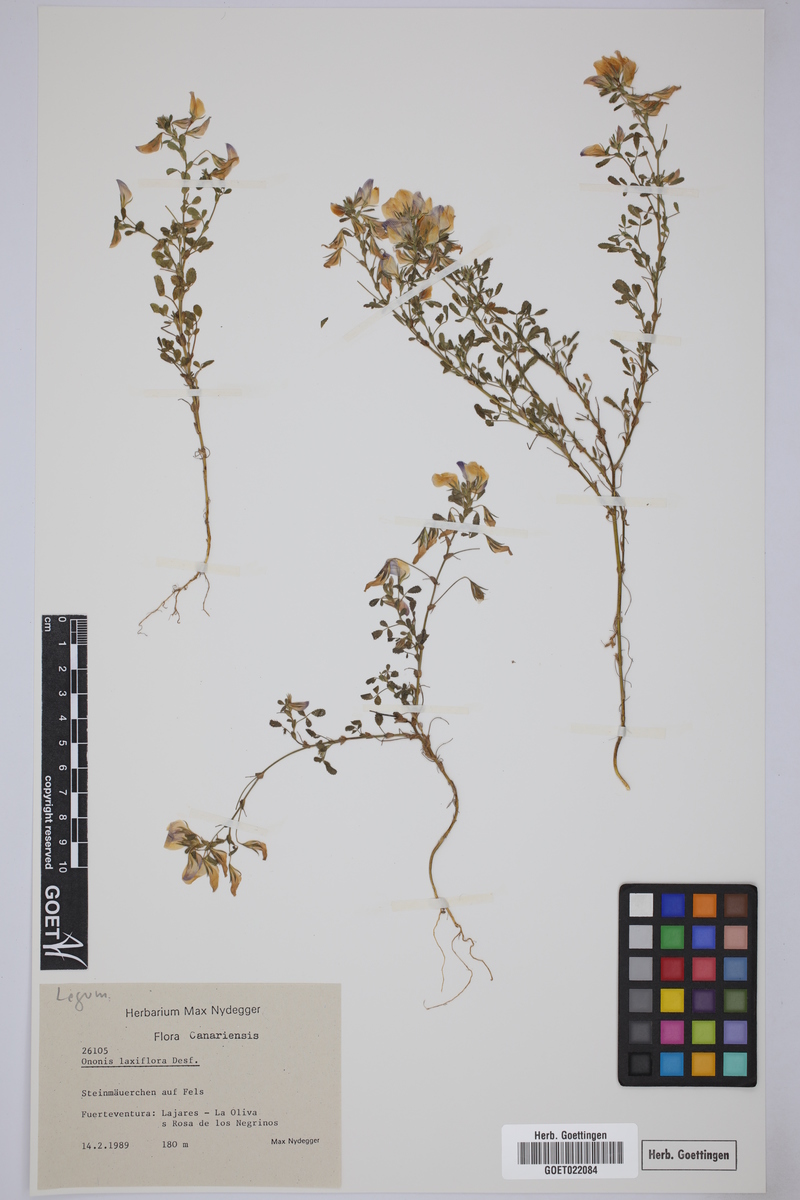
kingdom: Plantae
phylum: Tracheophyta
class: Magnoliopsida
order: Fabales
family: Fabaceae
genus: Ononis
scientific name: Ononis laxiflora
